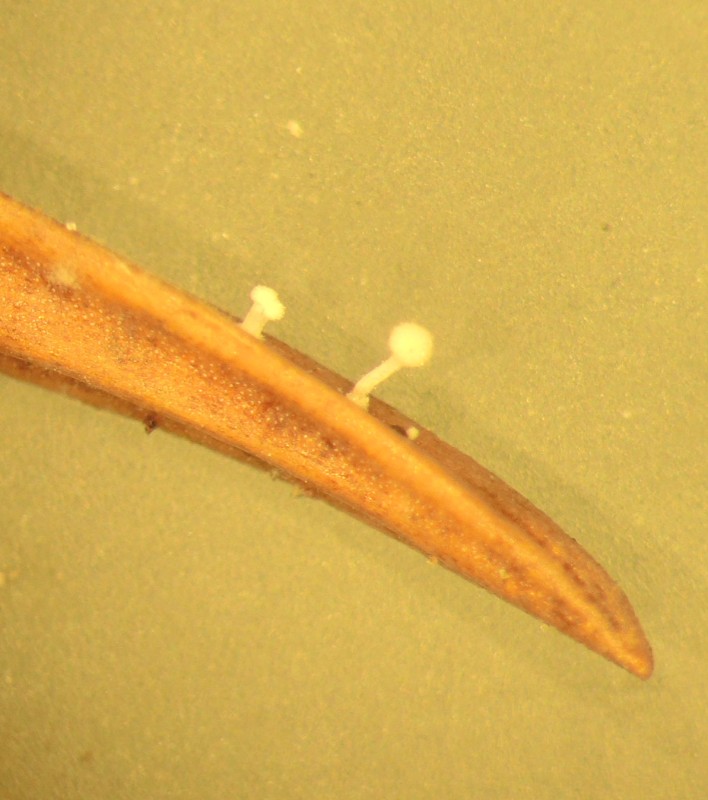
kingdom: Fungi
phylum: Basidiomycota
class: Agaricomycetes
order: Agaricales
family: Physalacriaceae
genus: Physalacria
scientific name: Physalacria cryptomeriae
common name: japangran-boldkølle
